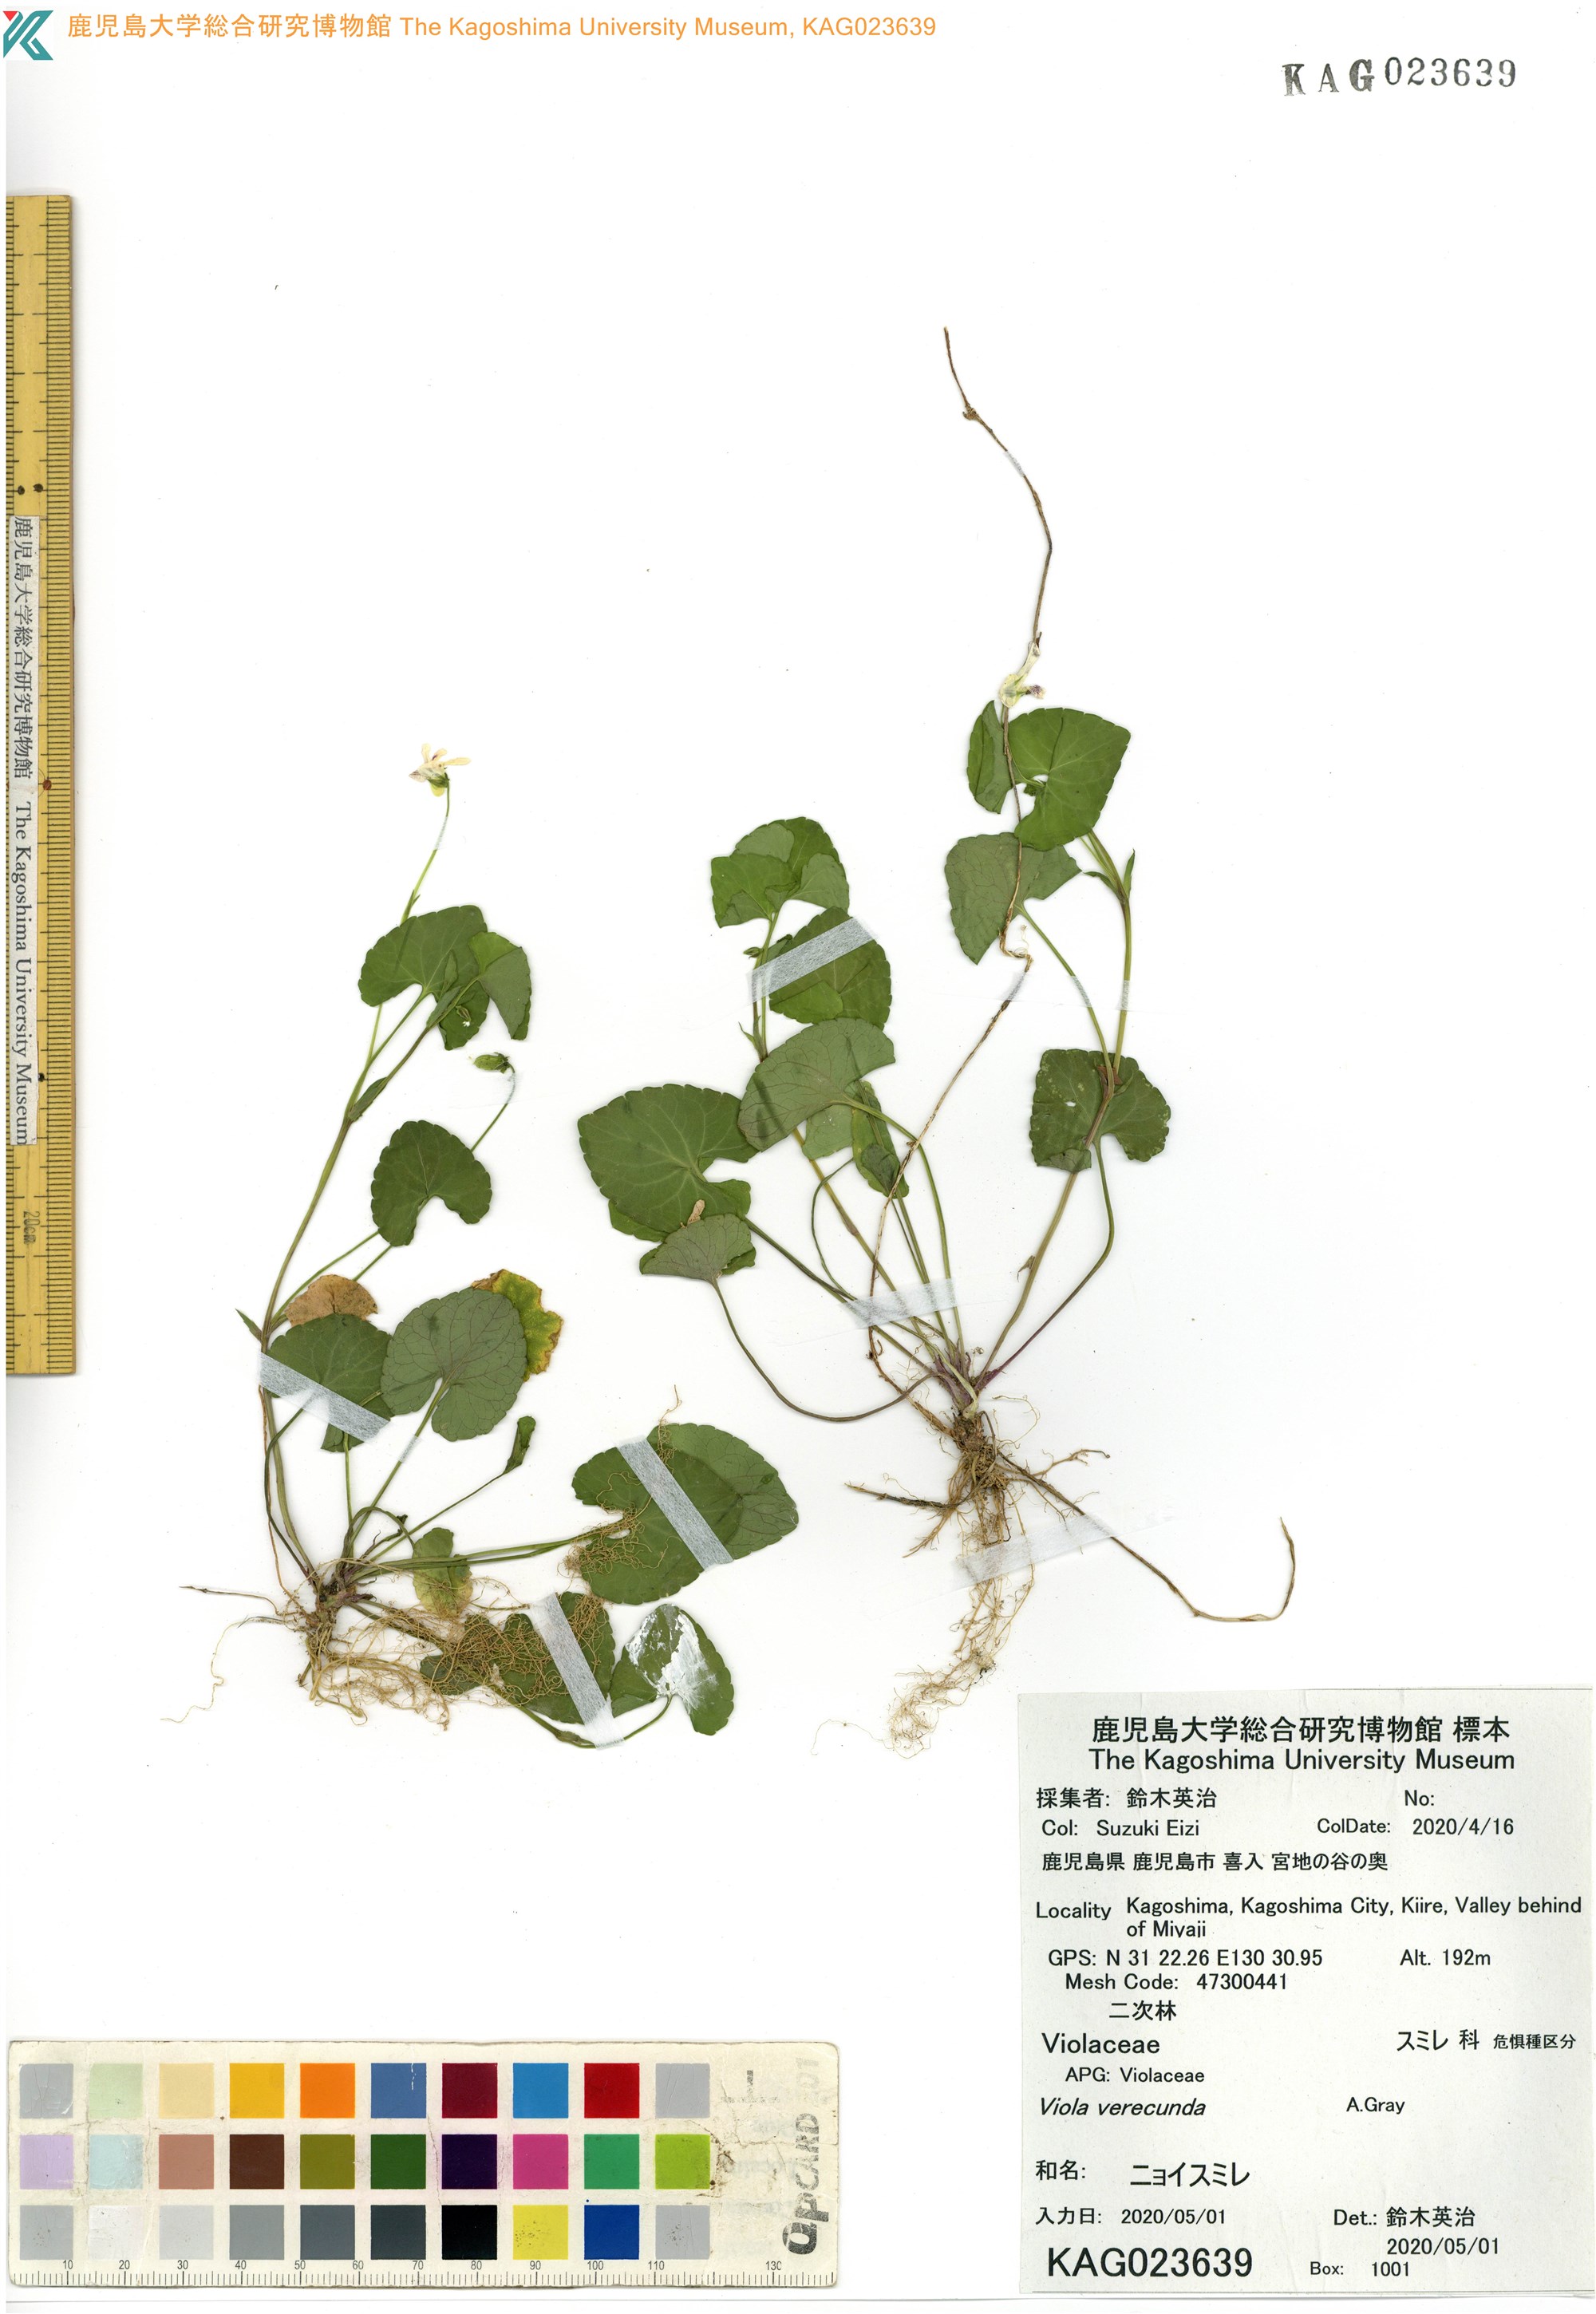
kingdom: Plantae
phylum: Tracheophyta
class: Magnoliopsida
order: Malpighiales
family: Violaceae
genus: Viola
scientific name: Viola hamiltoniana
